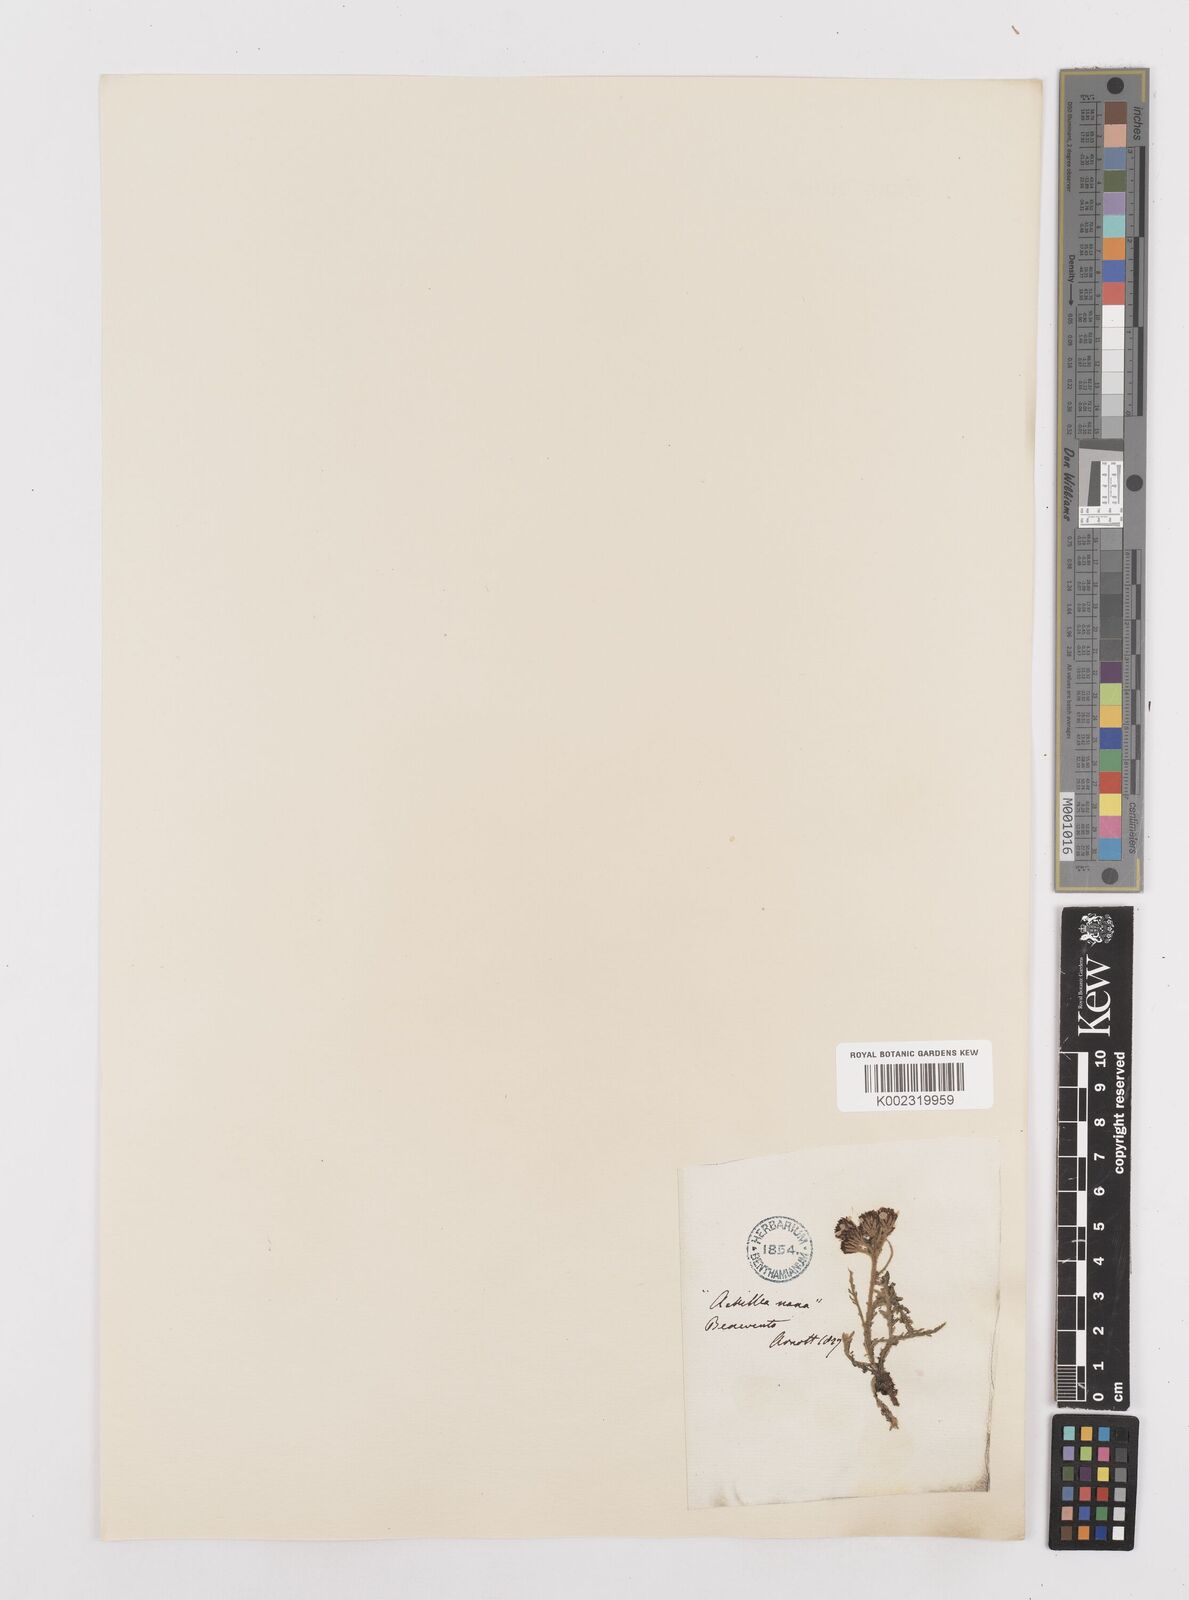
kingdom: Plantae
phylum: Tracheophyta
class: Magnoliopsida
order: Asterales
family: Asteraceae
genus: Achillea
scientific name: Achillea nana
